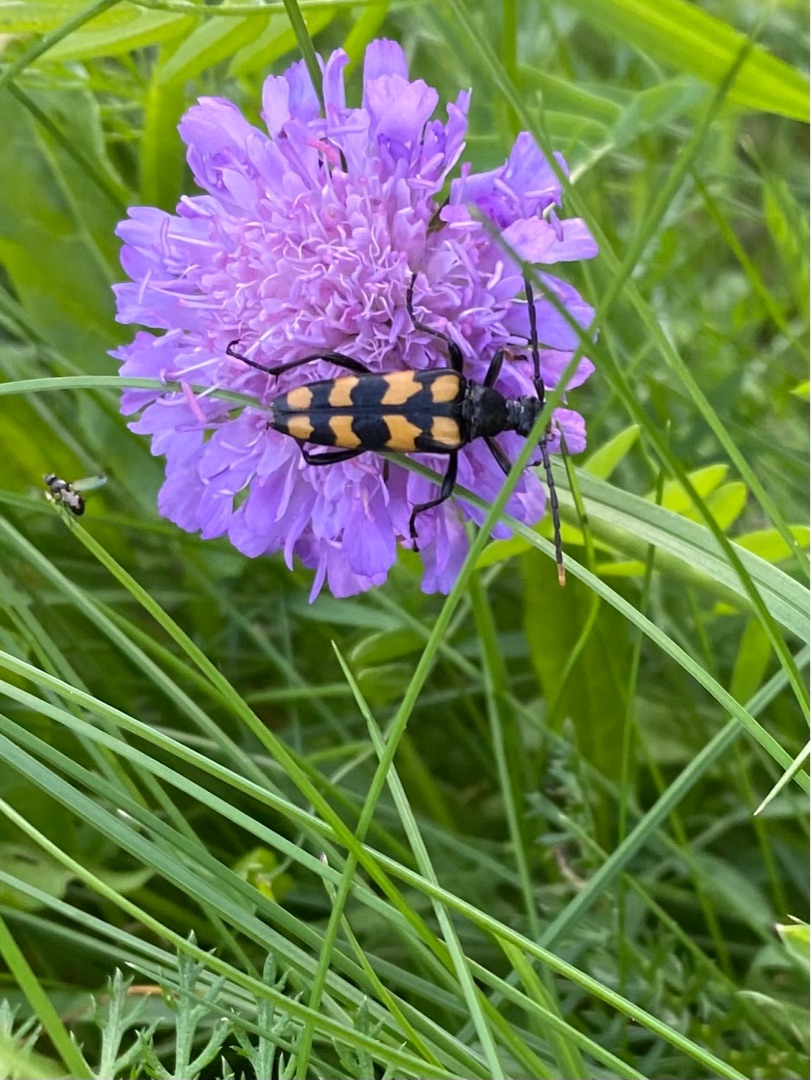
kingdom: Animalia
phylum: Arthropoda
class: Insecta
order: Coleoptera
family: Cerambycidae
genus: Leptura
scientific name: Leptura quadrifasciata
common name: Firebåndet blomsterbuk
